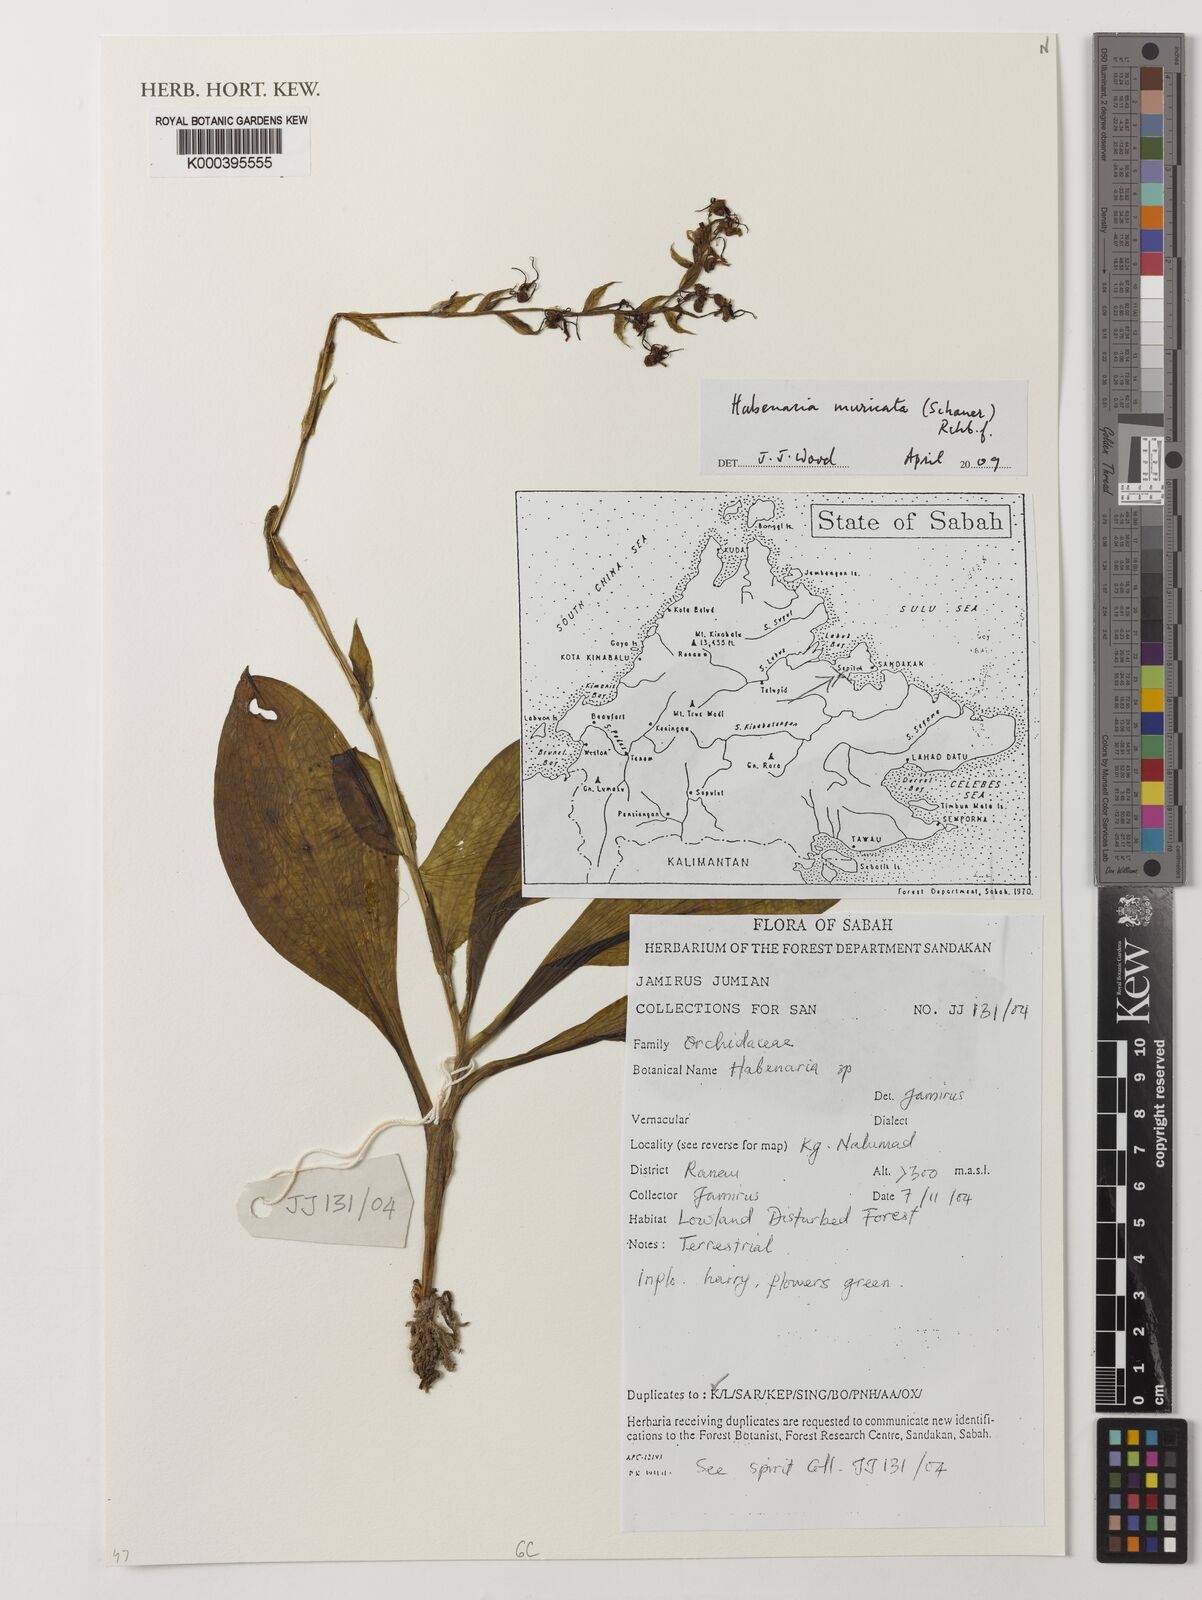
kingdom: Plantae
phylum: Tracheophyta
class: Liliopsida
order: Asparagales
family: Orchidaceae
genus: Habenaria
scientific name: Habenaria
